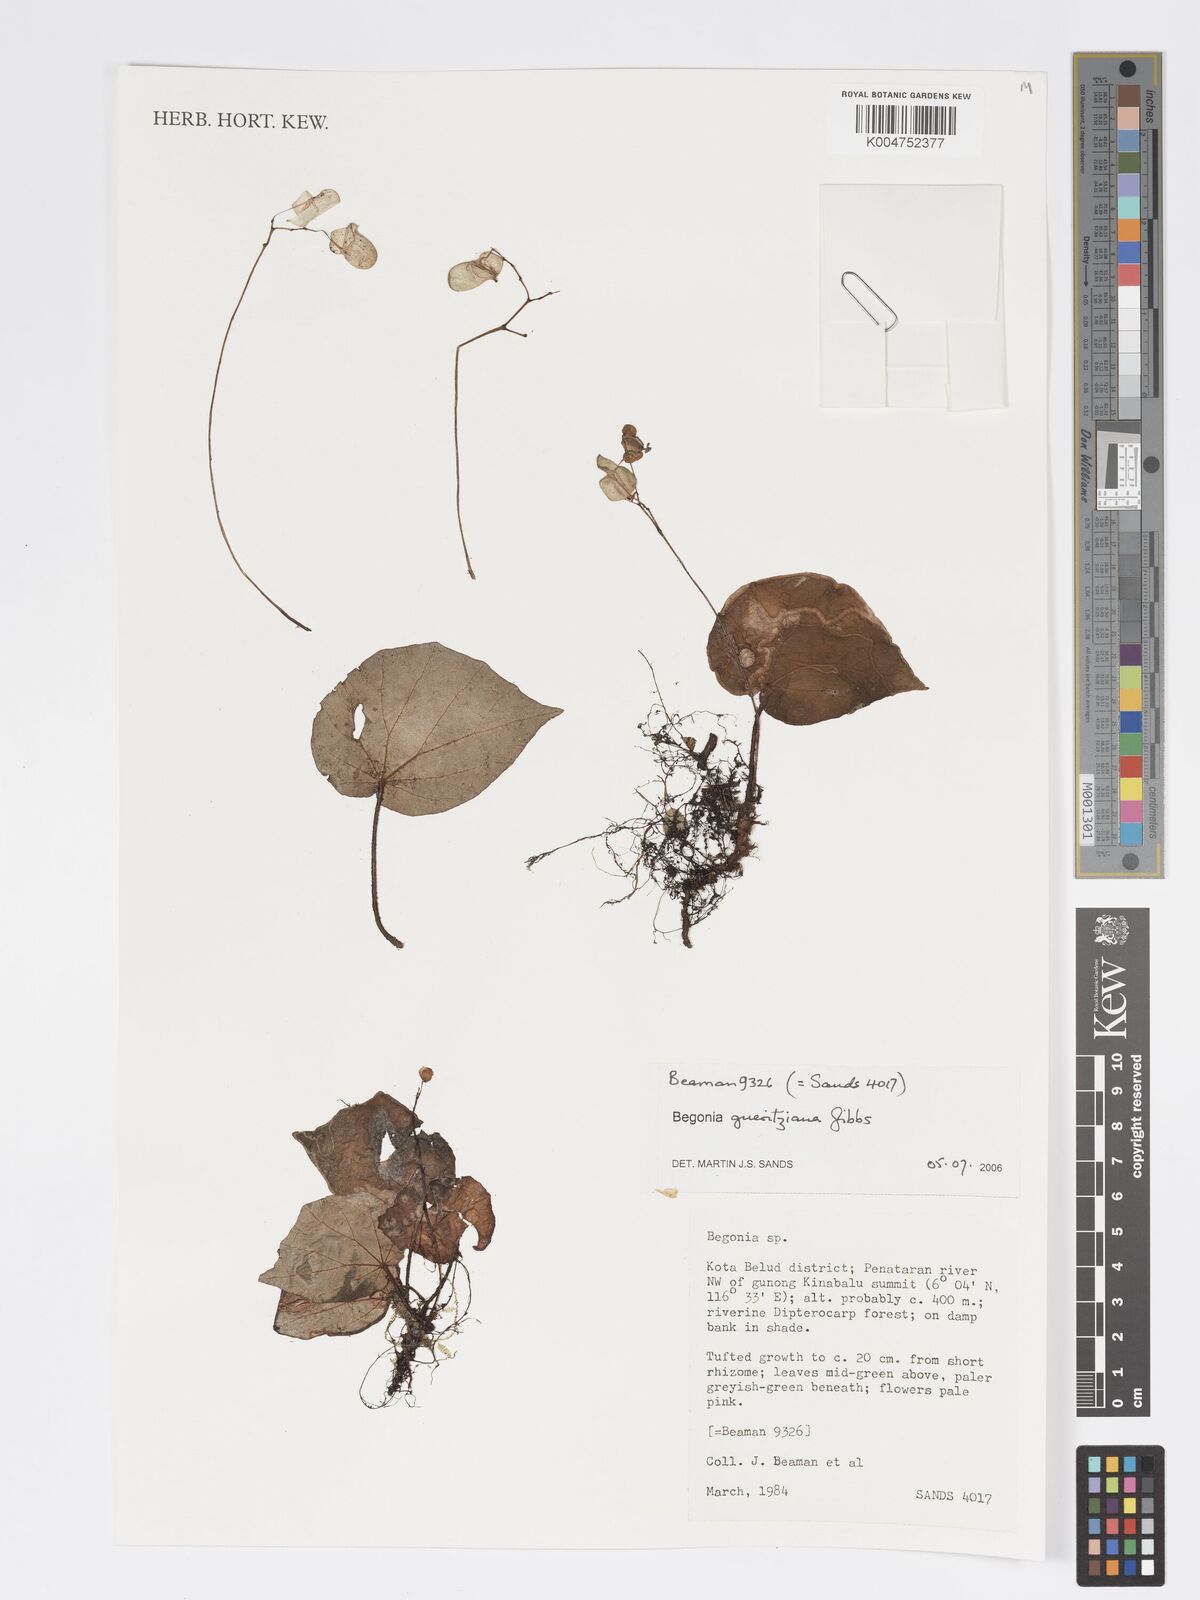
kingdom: Plantae
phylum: Tracheophyta
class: Magnoliopsida
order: Cucurbitales
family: Begoniaceae
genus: Begonia
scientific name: Begonia gueritziana
